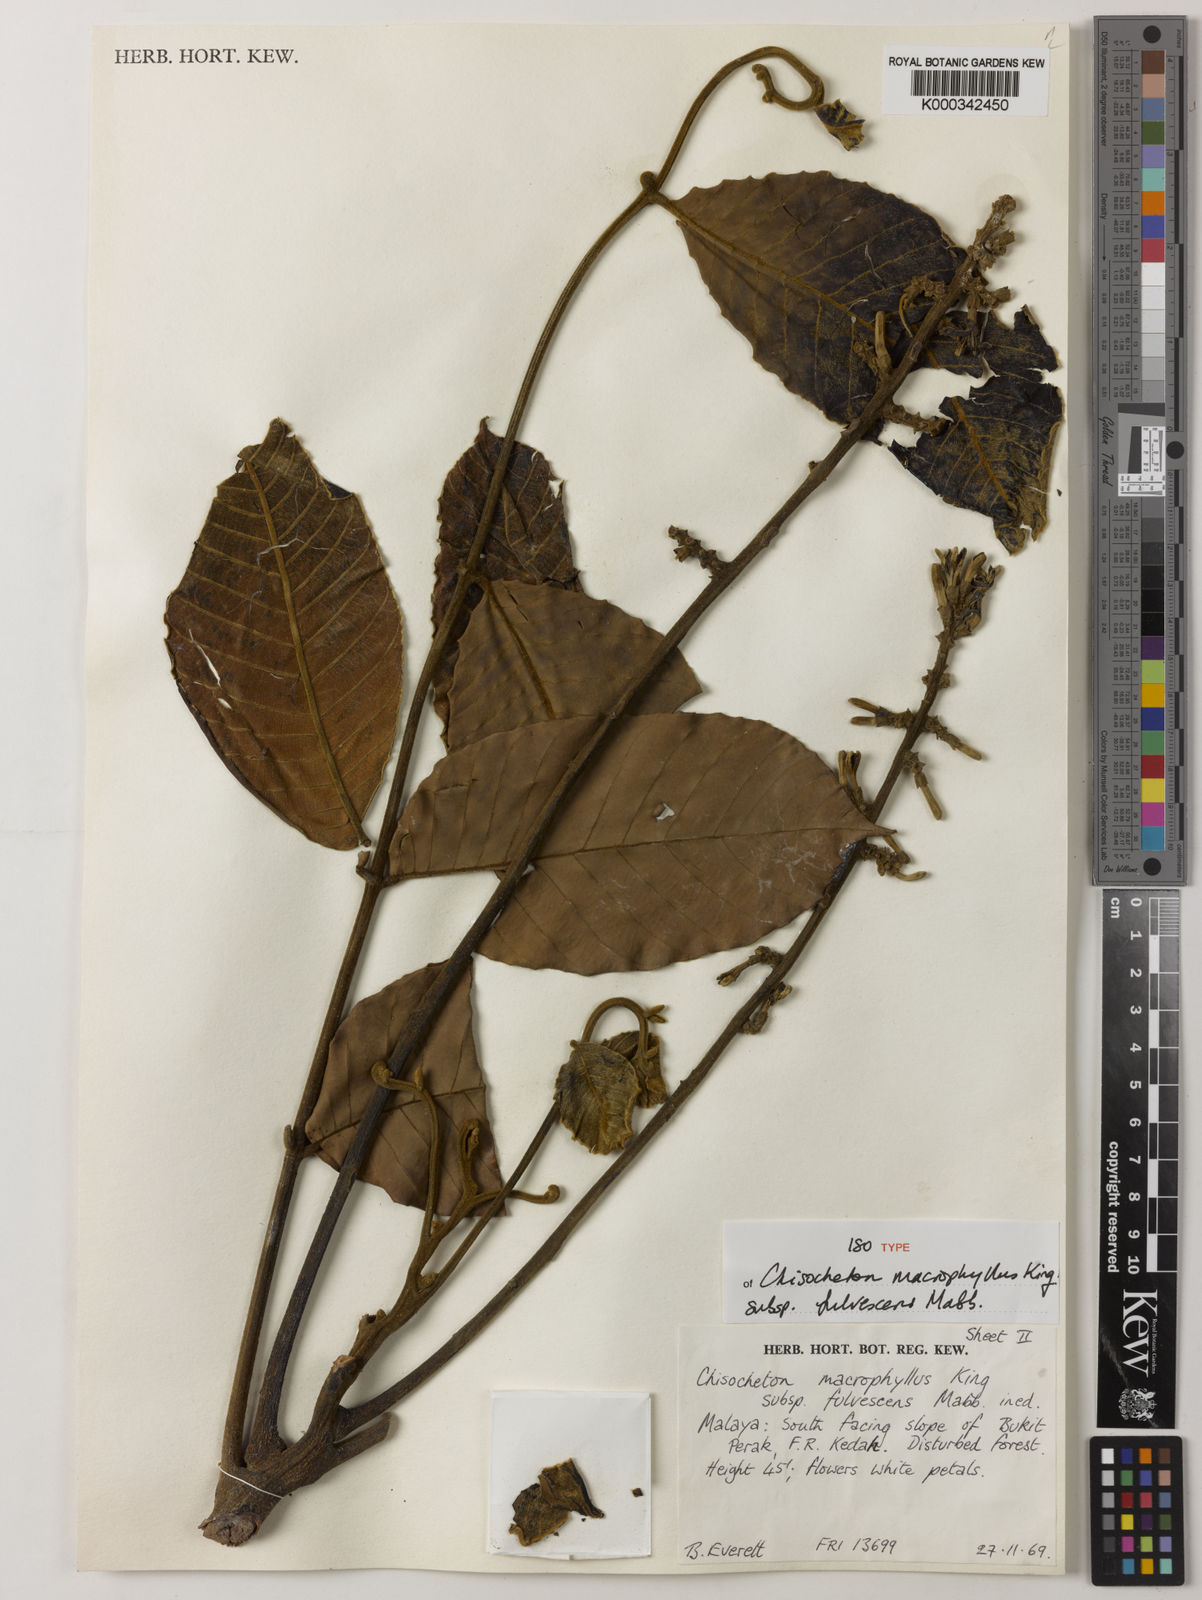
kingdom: Plantae
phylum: Tracheophyta
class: Magnoliopsida
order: Sapindales
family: Meliaceae
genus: Chisocheton
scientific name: Chisocheton macrophyllus
